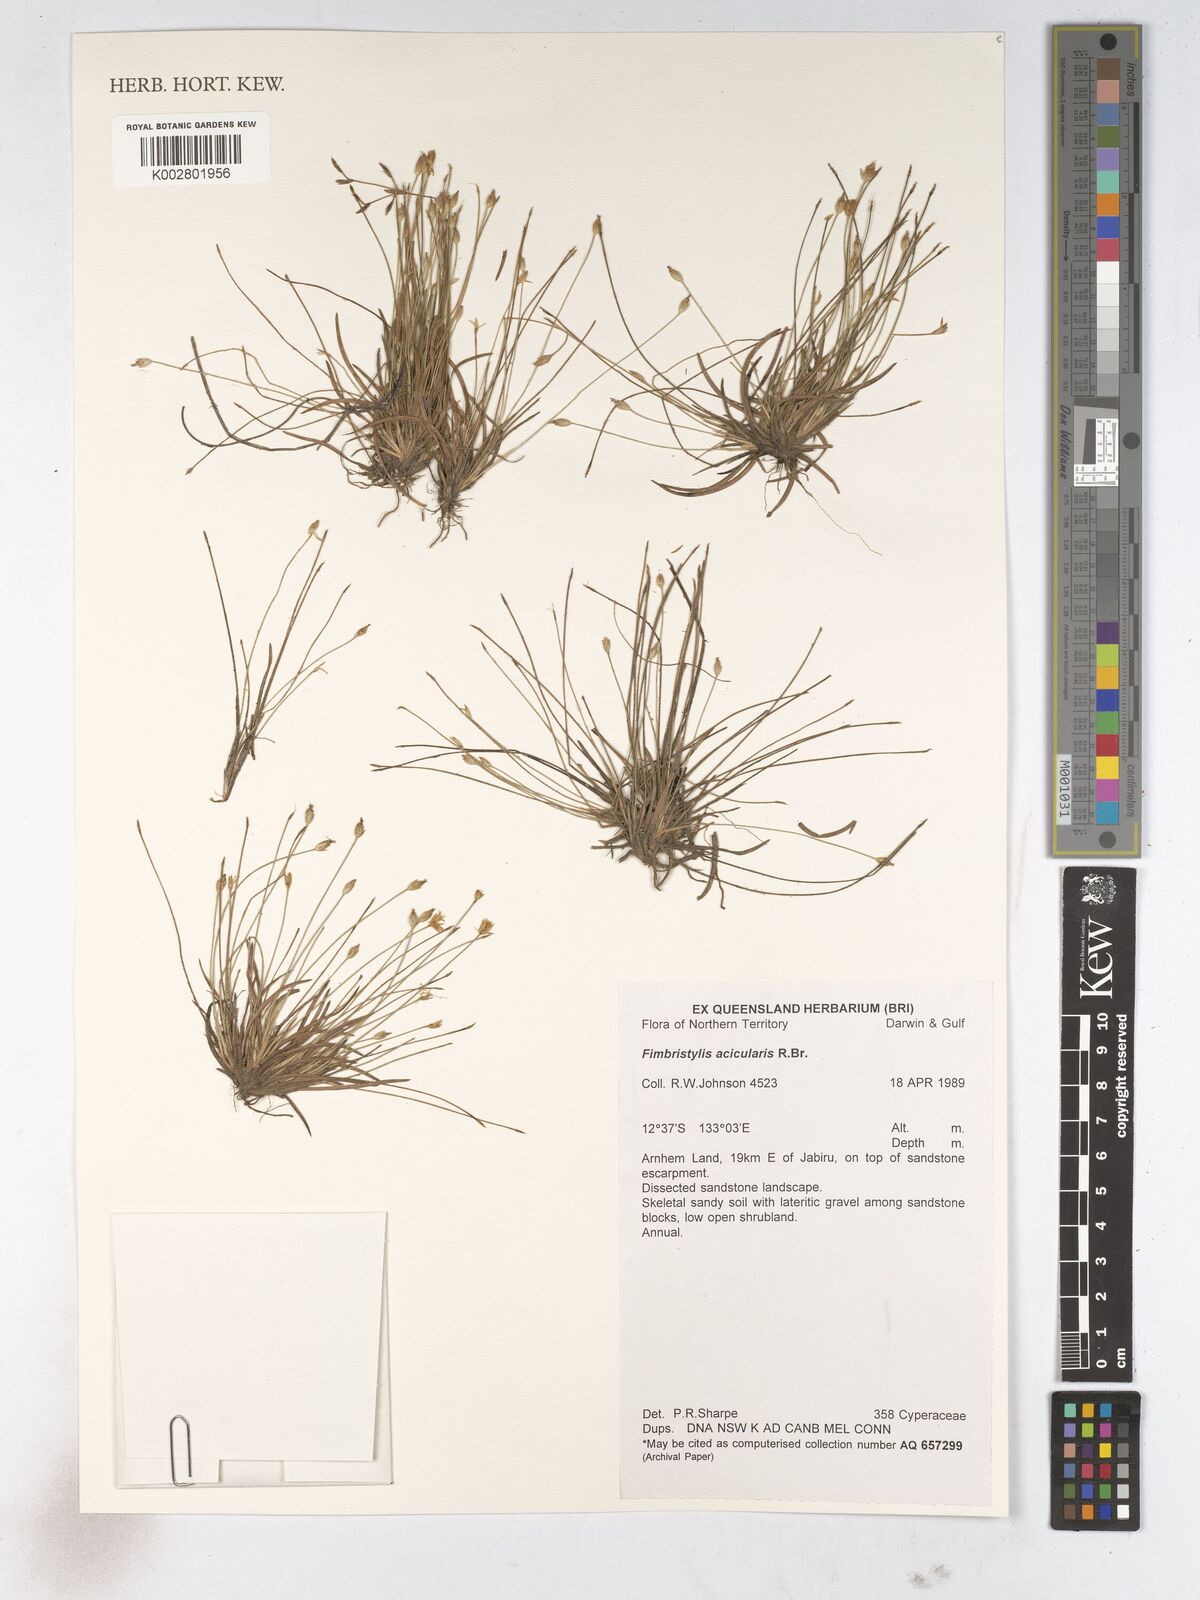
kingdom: Plantae
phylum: Tracheophyta
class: Liliopsida
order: Poales
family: Cyperaceae
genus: Fimbristylis
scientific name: Fimbristylis acicularis
